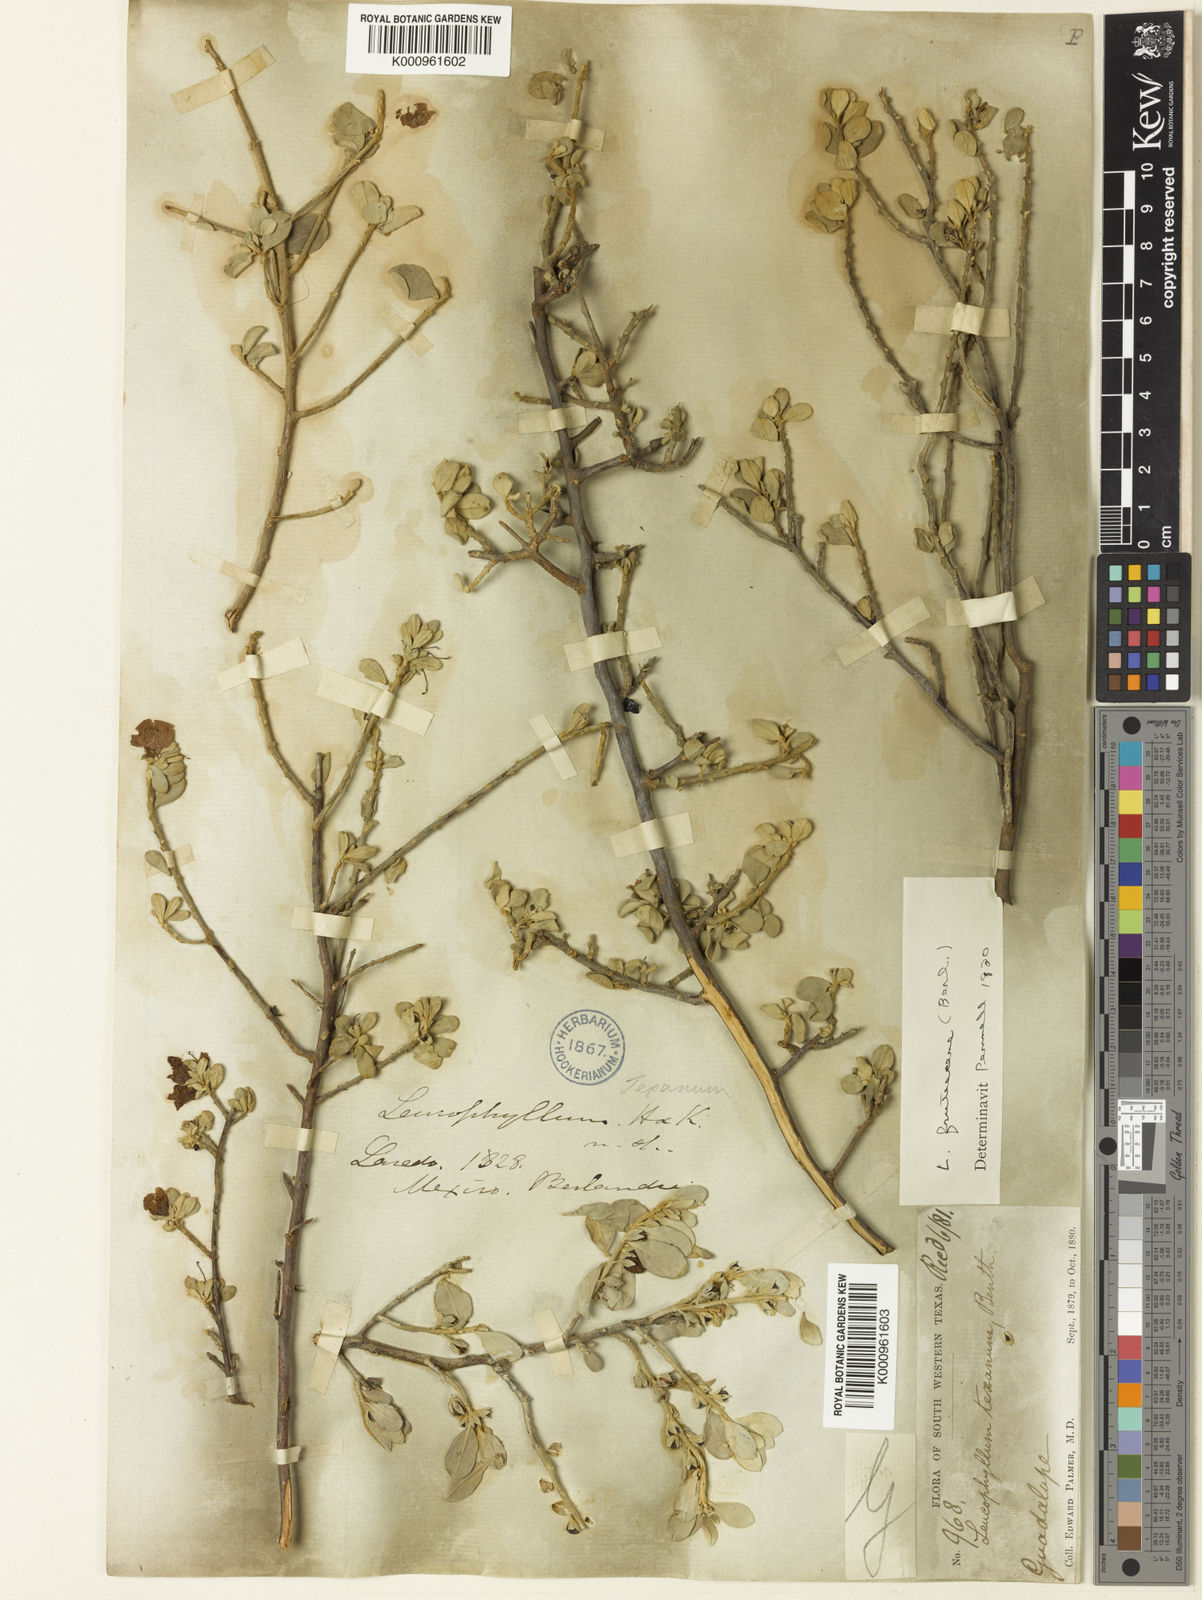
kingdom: Plantae
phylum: Tracheophyta
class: Magnoliopsida
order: Lamiales
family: Scrophulariaceae
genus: Leucophyllum
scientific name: Leucophyllum frutescens
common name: Texas silverleaf
